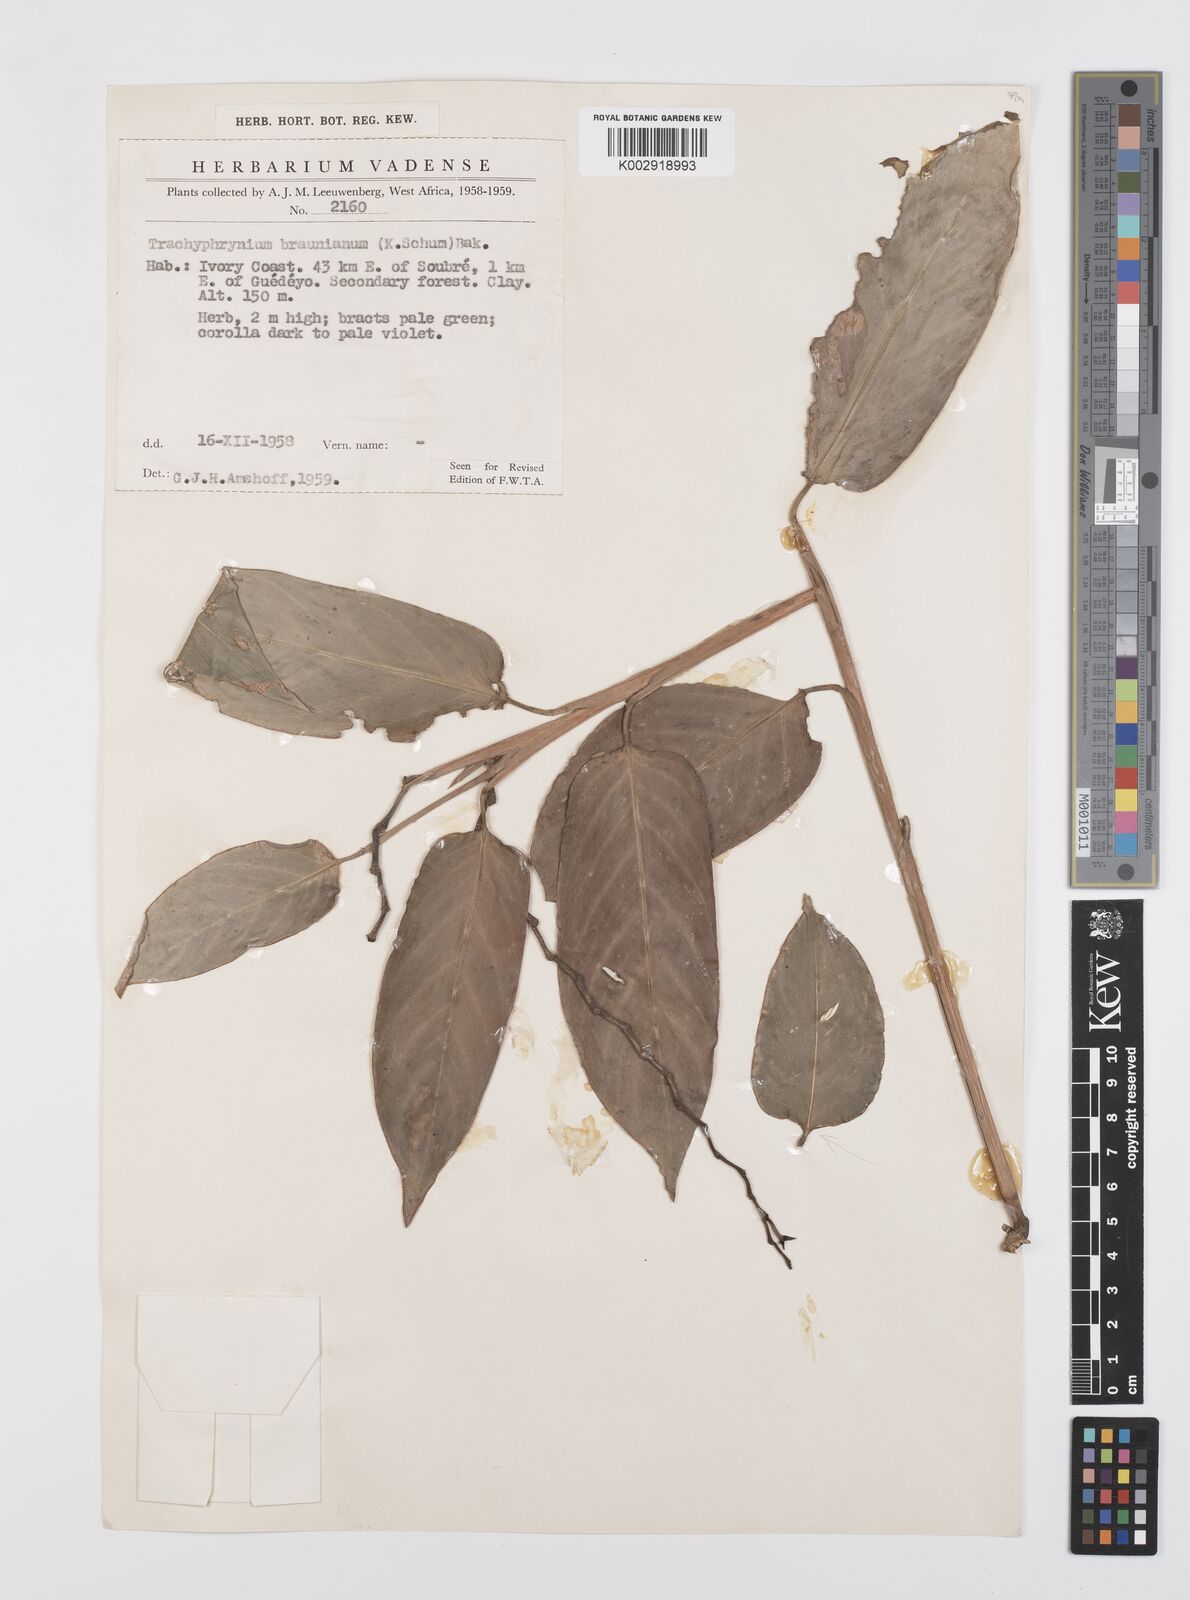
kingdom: Plantae
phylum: Tracheophyta
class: Liliopsida
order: Zingiberales
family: Marantaceae
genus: Trachyphrynium
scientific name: Trachyphrynium braunianum
